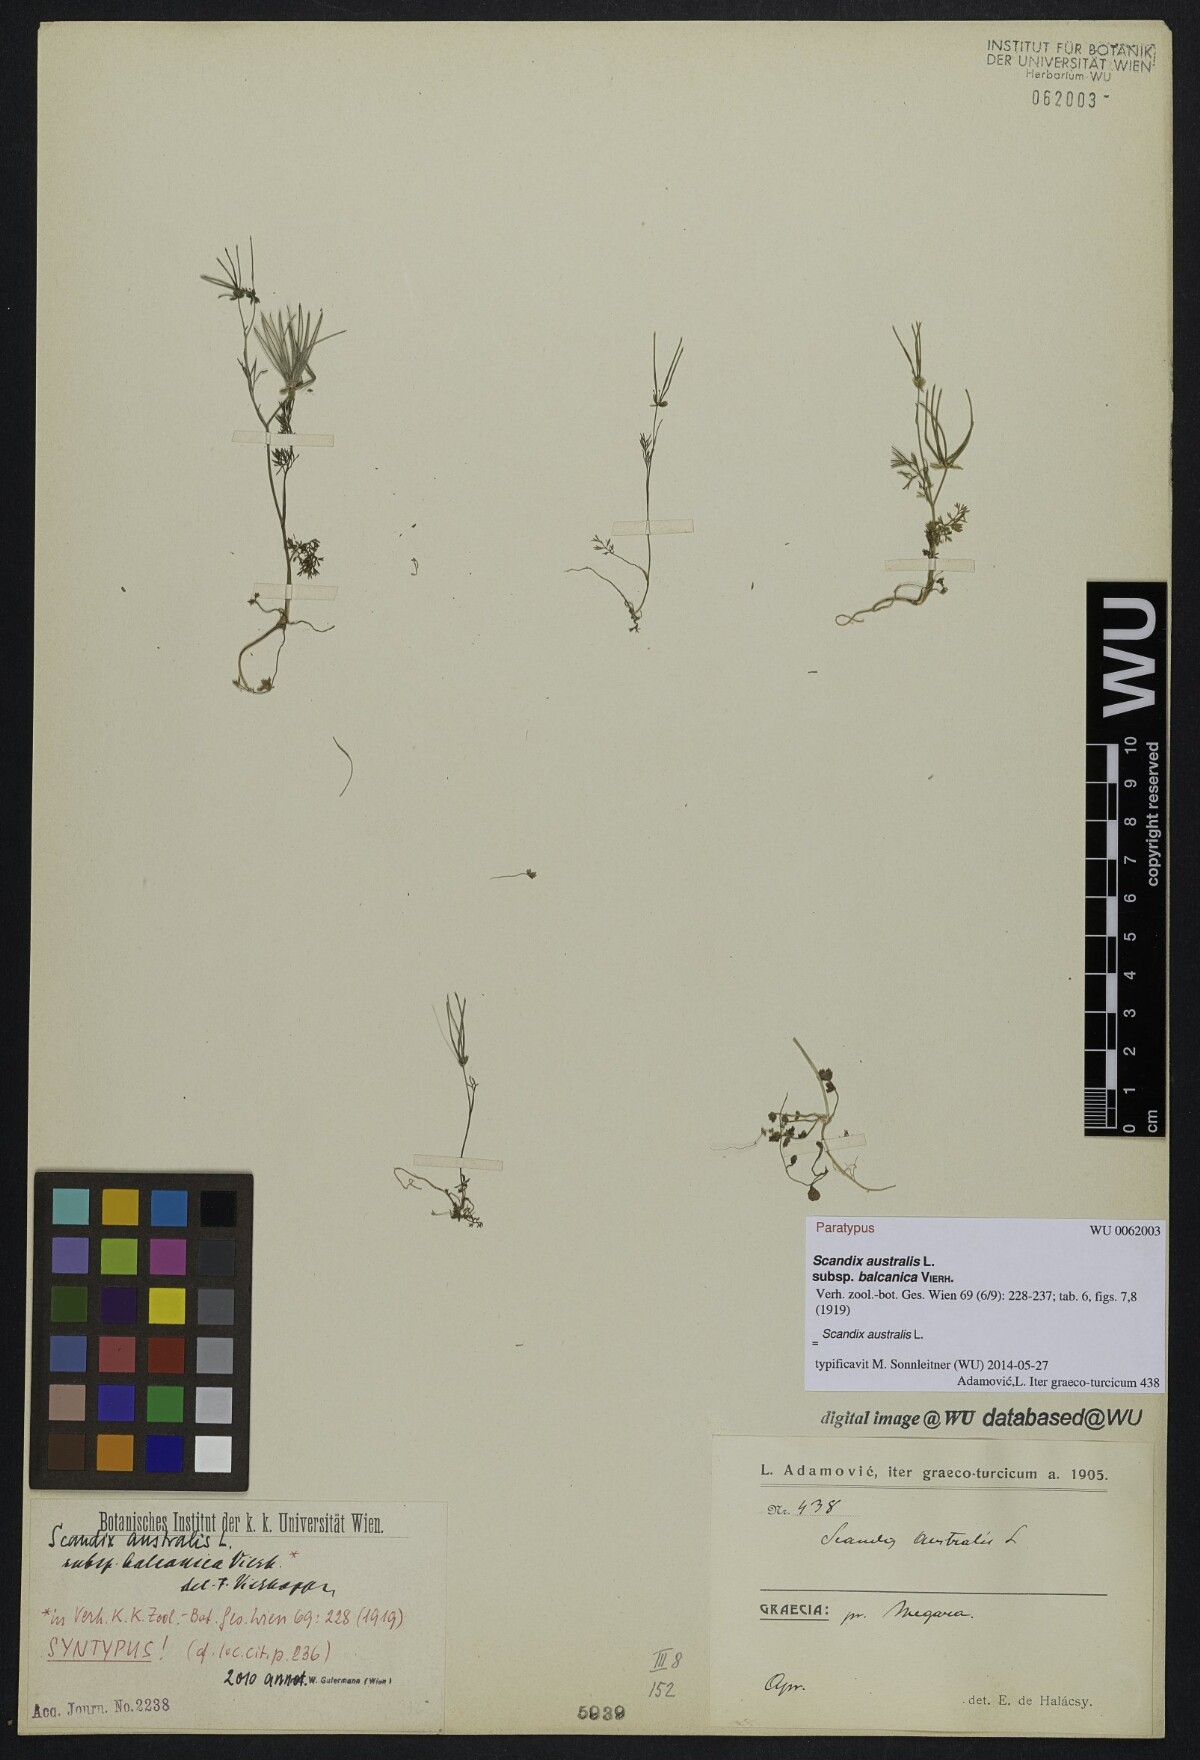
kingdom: Plantae
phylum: Tracheophyta
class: Magnoliopsida
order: Apiales
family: Apiaceae
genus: Scandix
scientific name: Scandix australis
